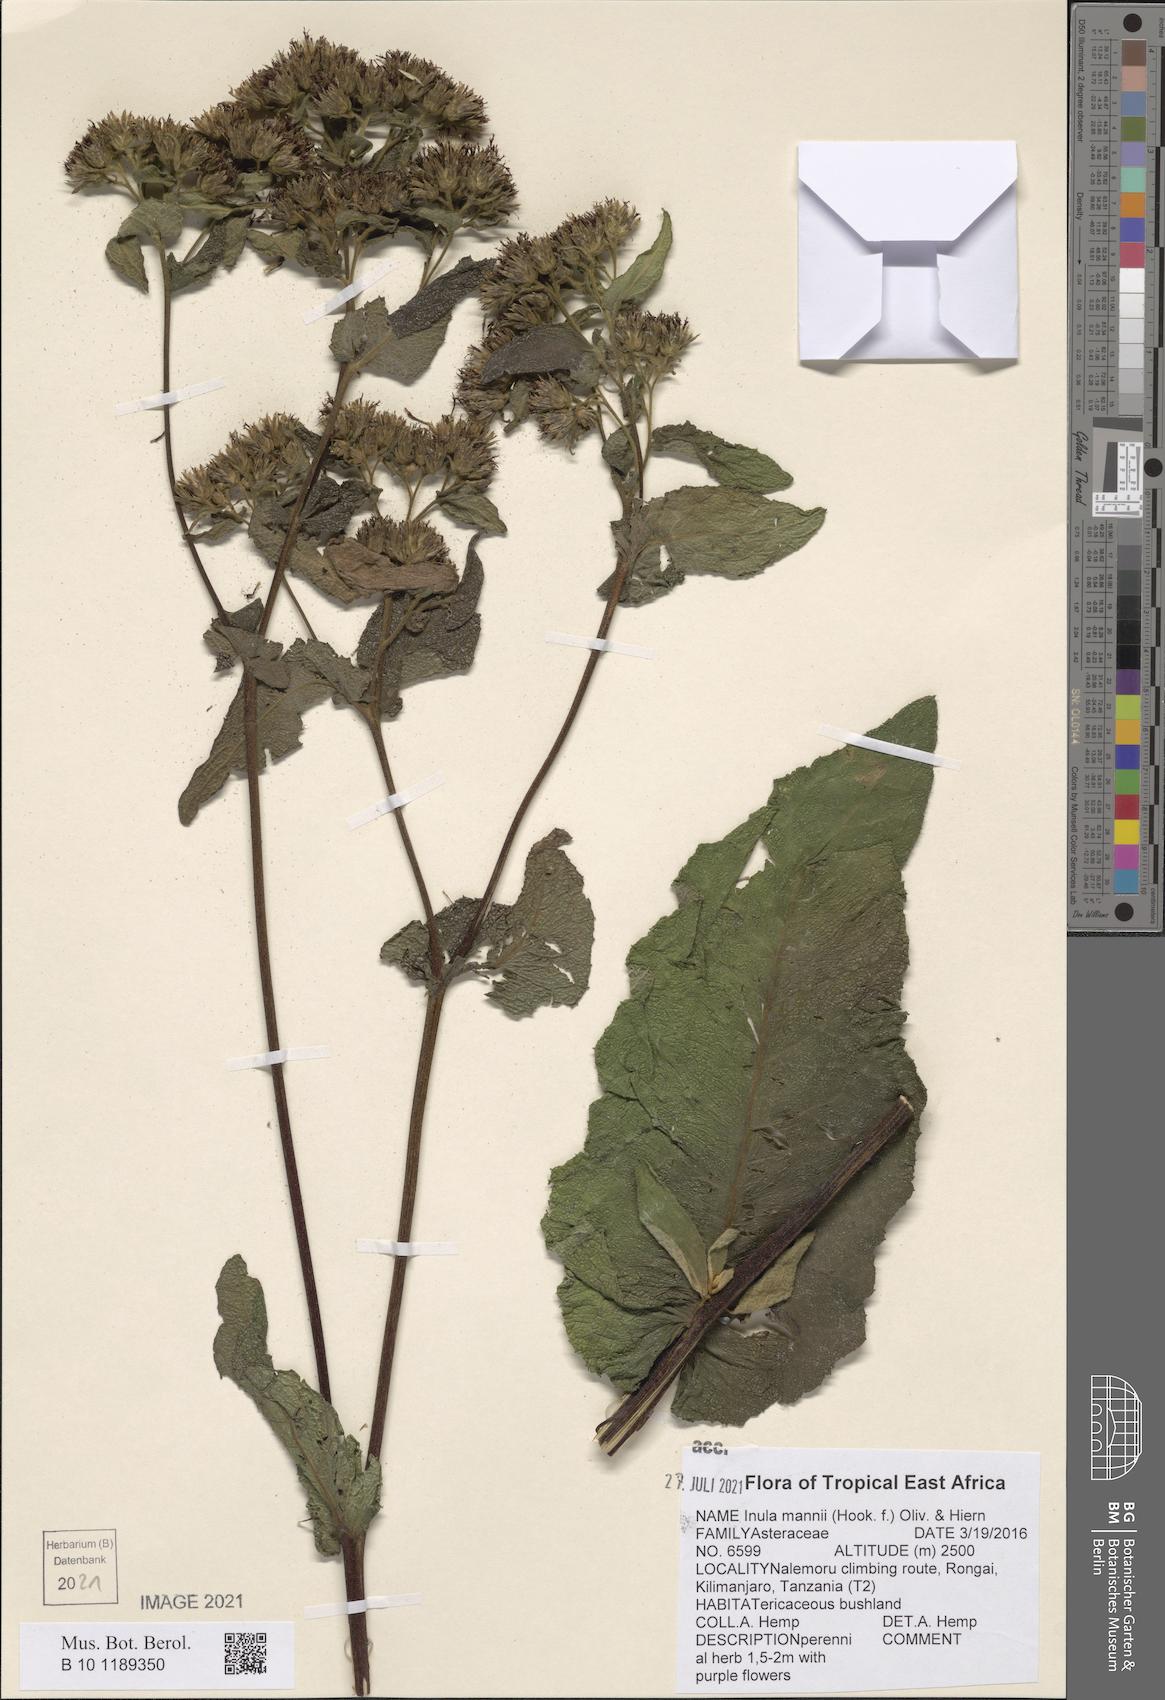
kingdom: Plantae
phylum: Tracheophyta
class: Magnoliopsida
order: Asterales
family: Asteraceae
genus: Inula
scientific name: Inula mannii
